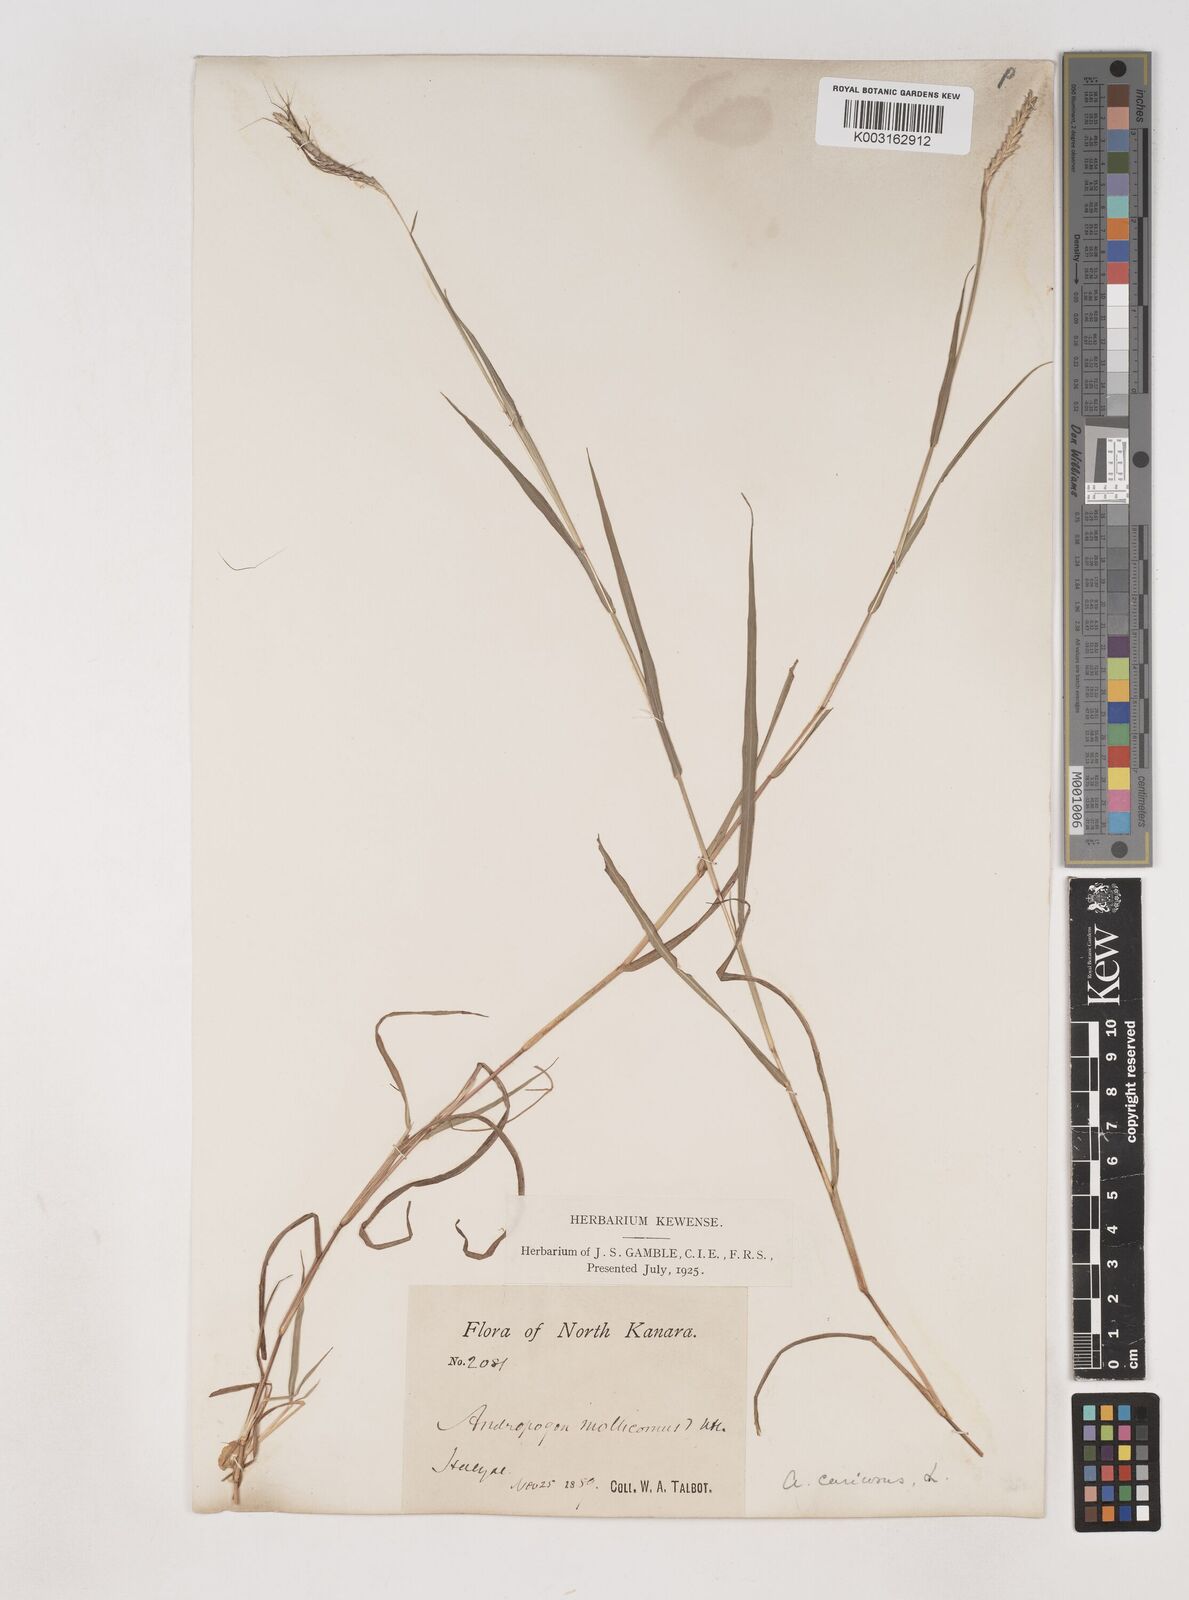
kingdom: Plantae
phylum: Tracheophyta
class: Liliopsida
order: Poales
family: Poaceae
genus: Dichanthium
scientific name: Dichanthium aristatum
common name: Angleton bluestem
